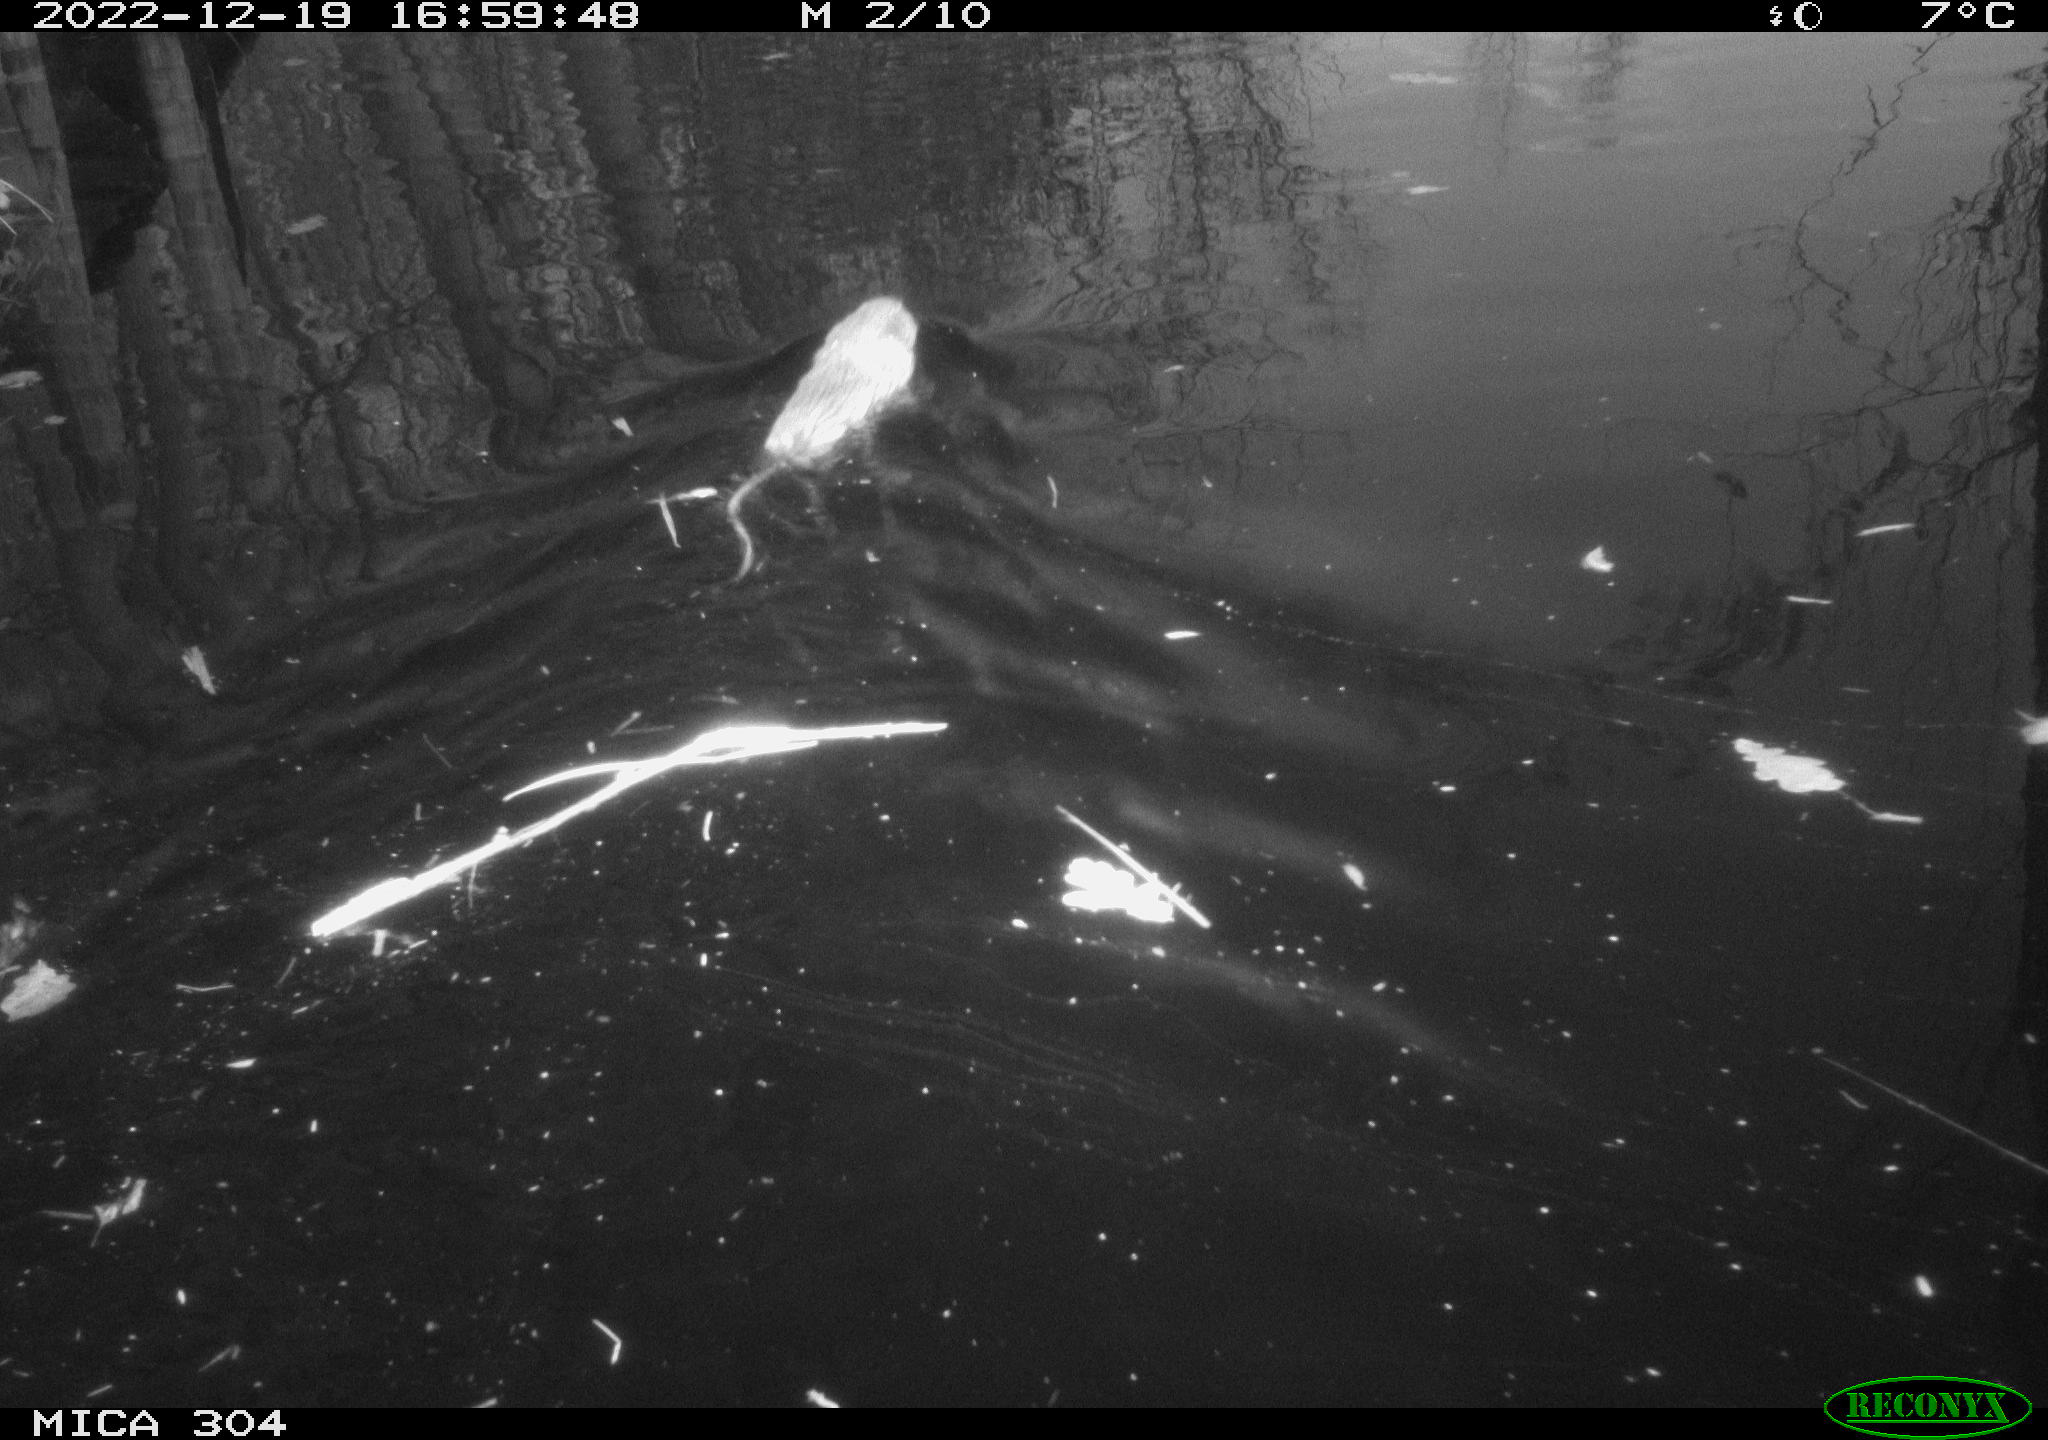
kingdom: Animalia
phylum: Chordata
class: Mammalia
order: Rodentia
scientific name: Rodentia
